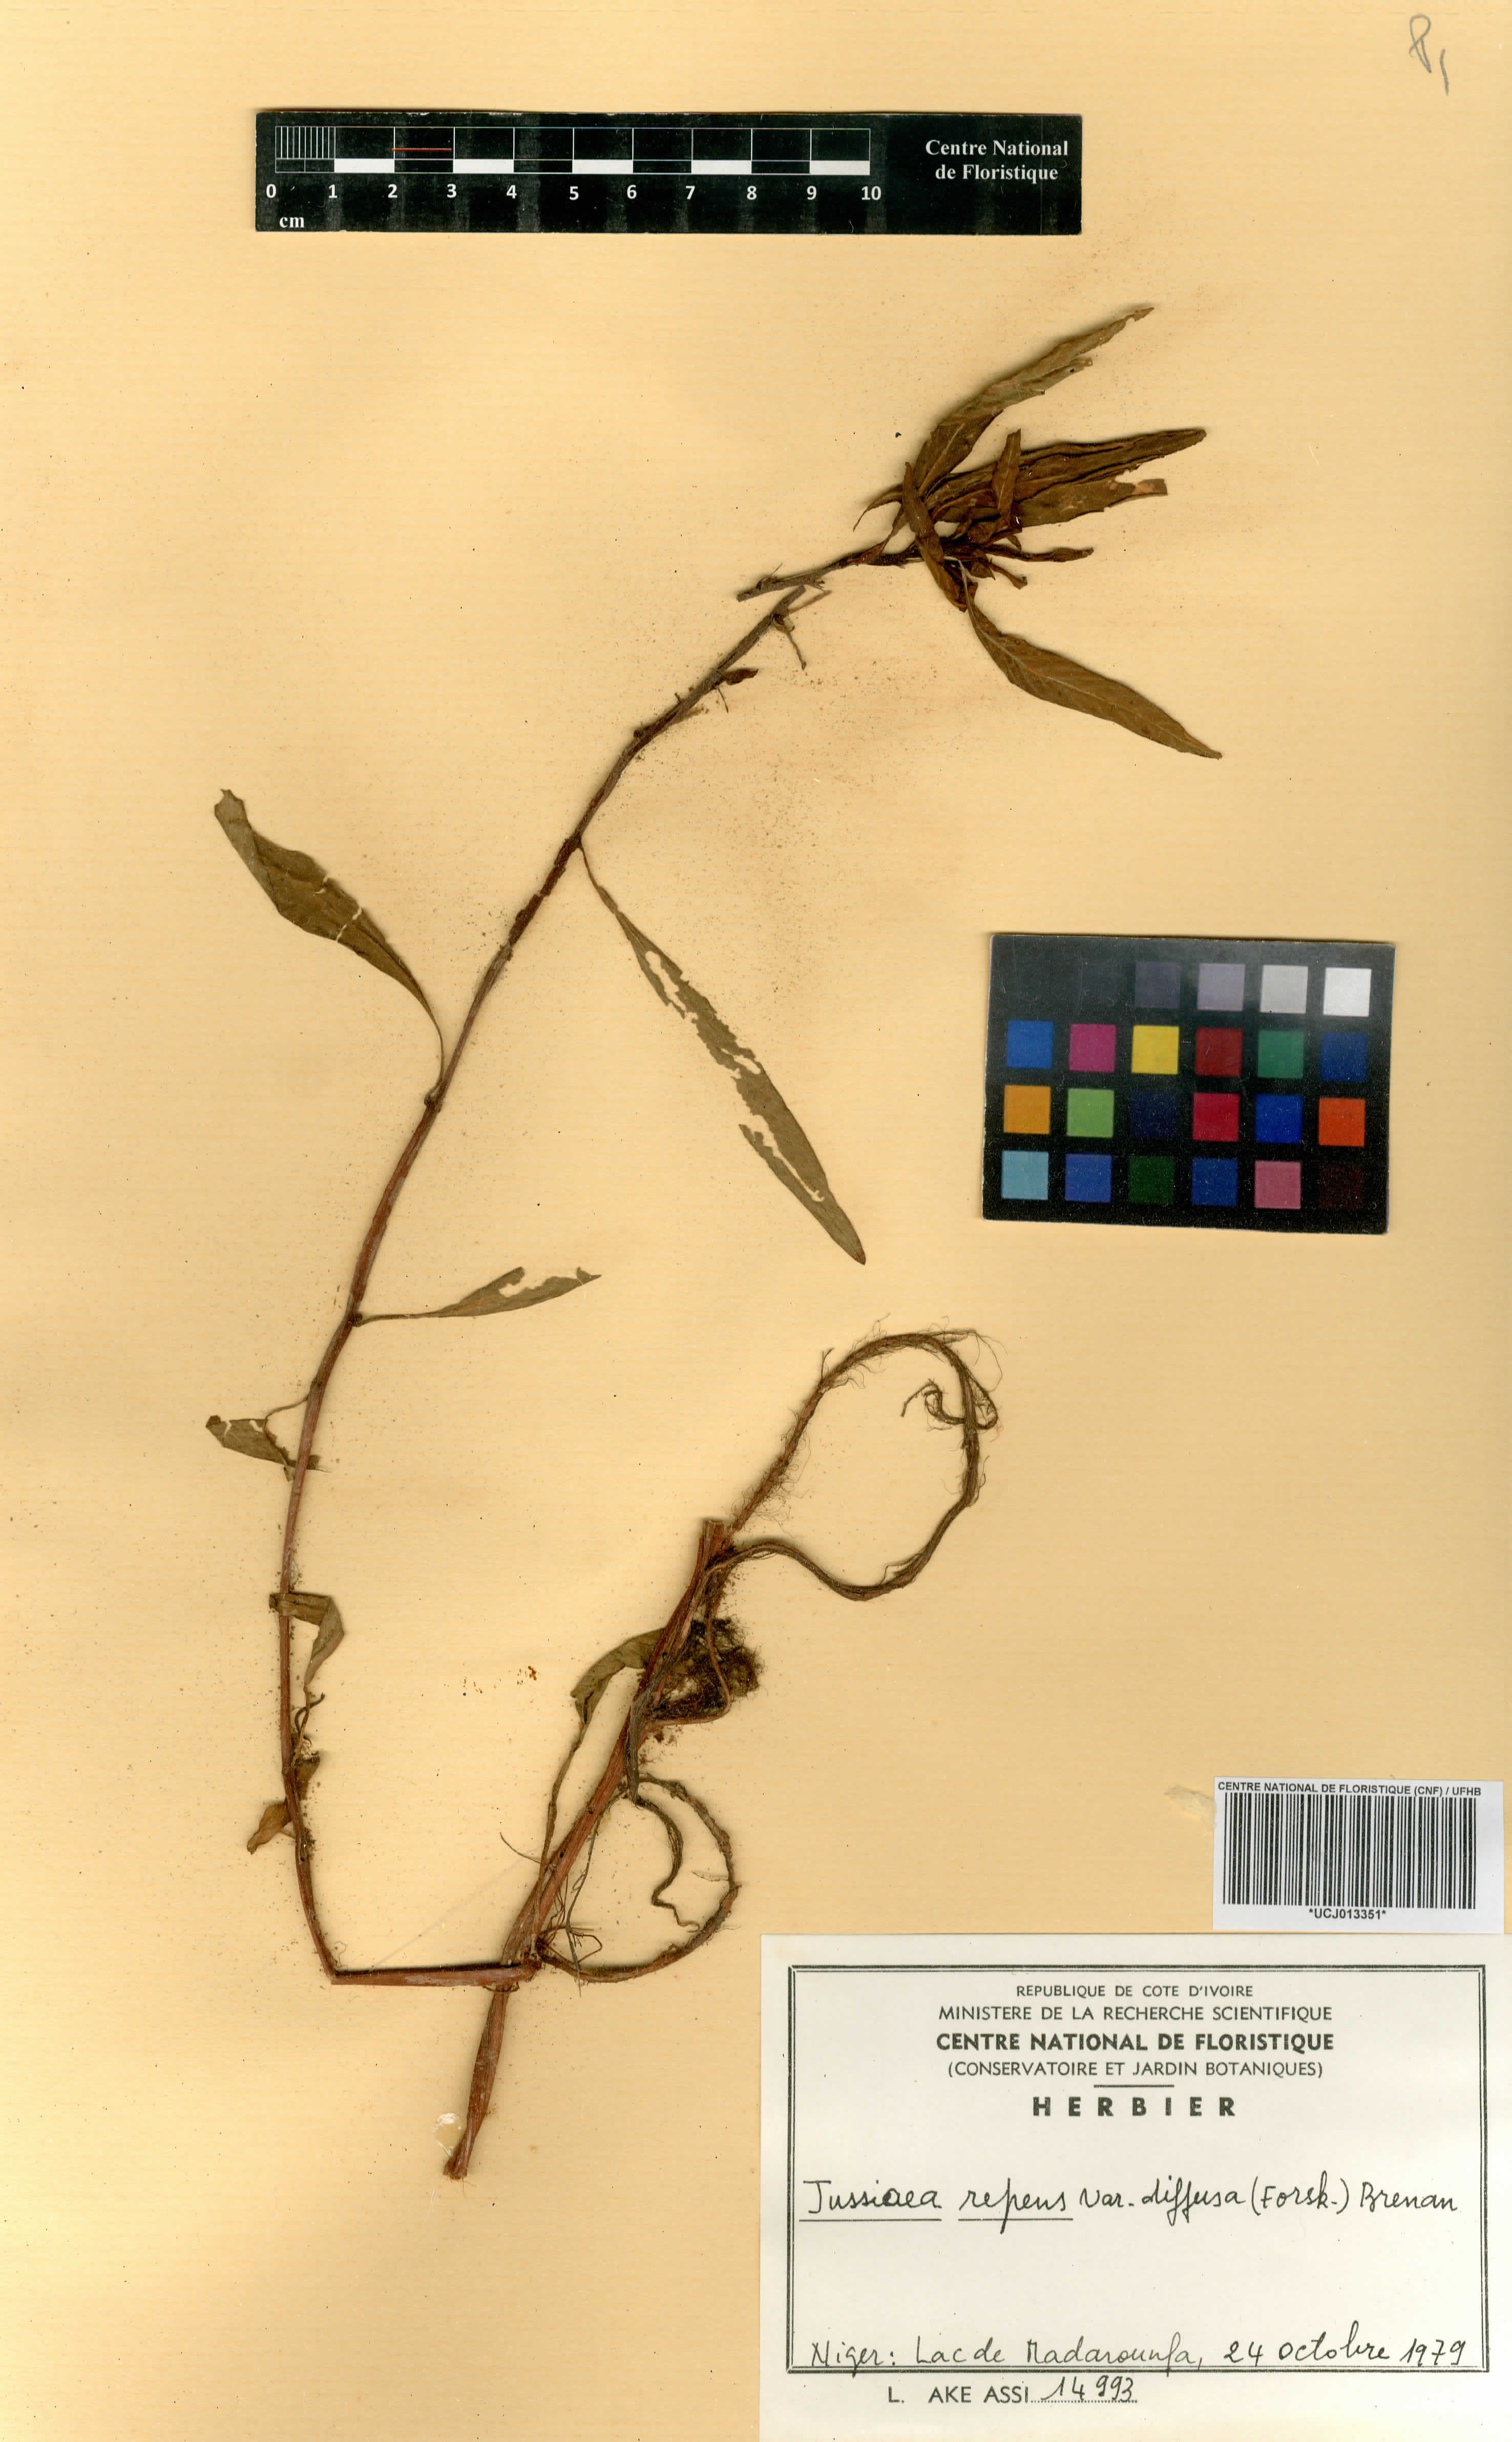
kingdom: Plantae
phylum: Tracheophyta
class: Magnoliopsida
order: Myrtales
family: Onagraceae
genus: Ludwigia
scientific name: Ludwigia adscendens
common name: Creeping water primrose
